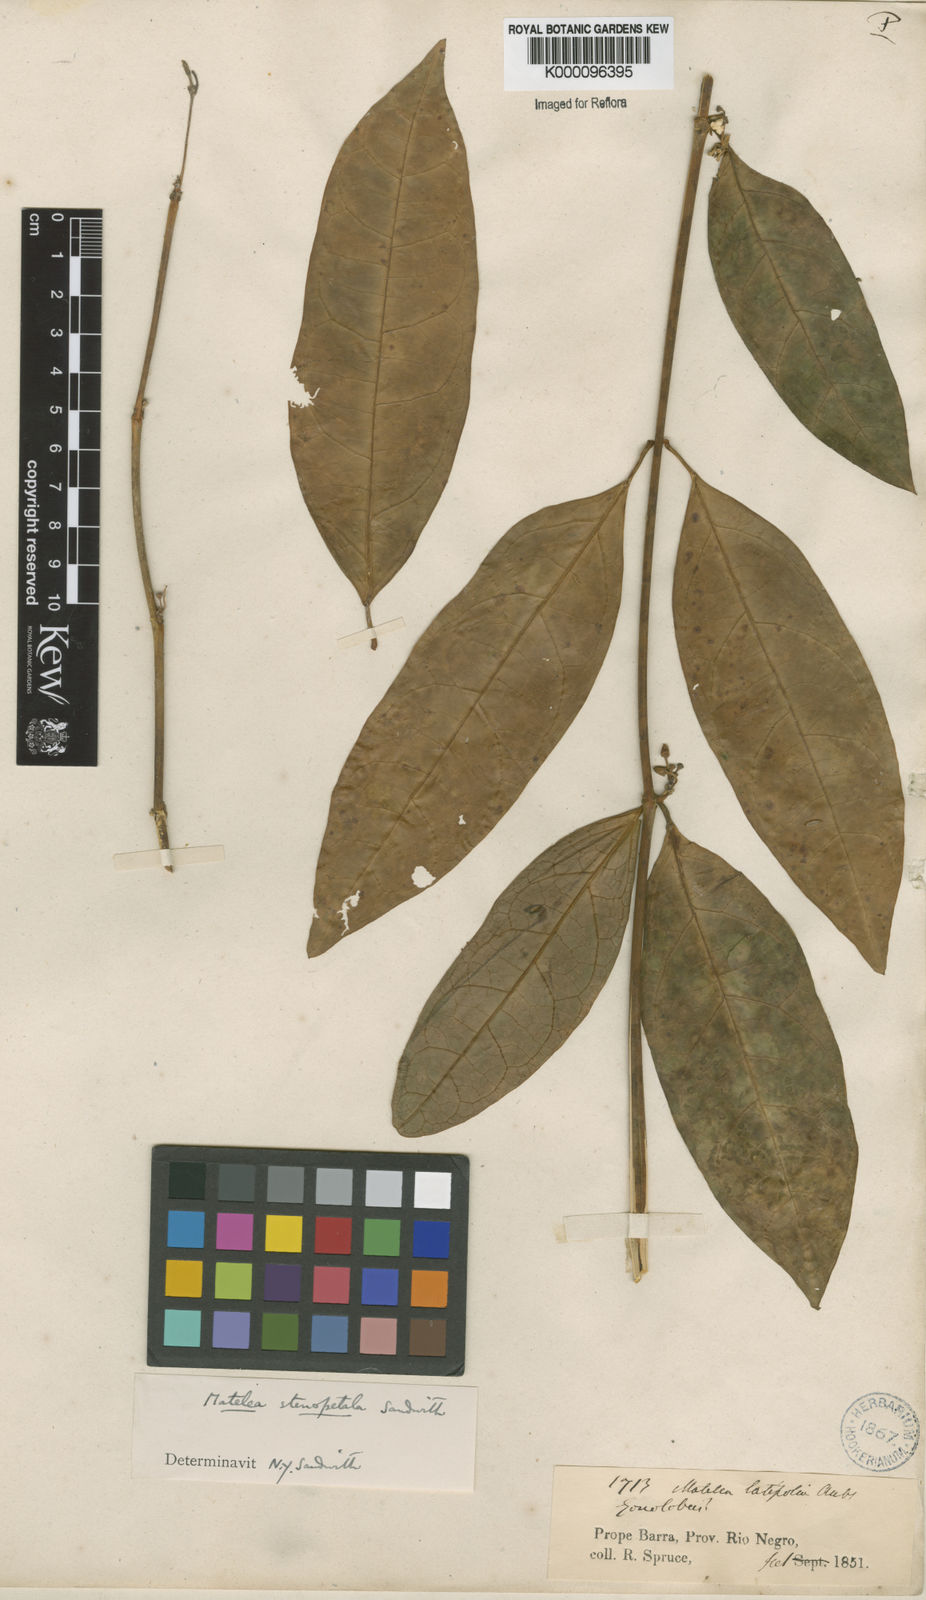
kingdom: Plantae
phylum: Tracheophyta
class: Magnoliopsida
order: Gentianales
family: Apocynaceae
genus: Matelea
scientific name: Matelea stenopetala
